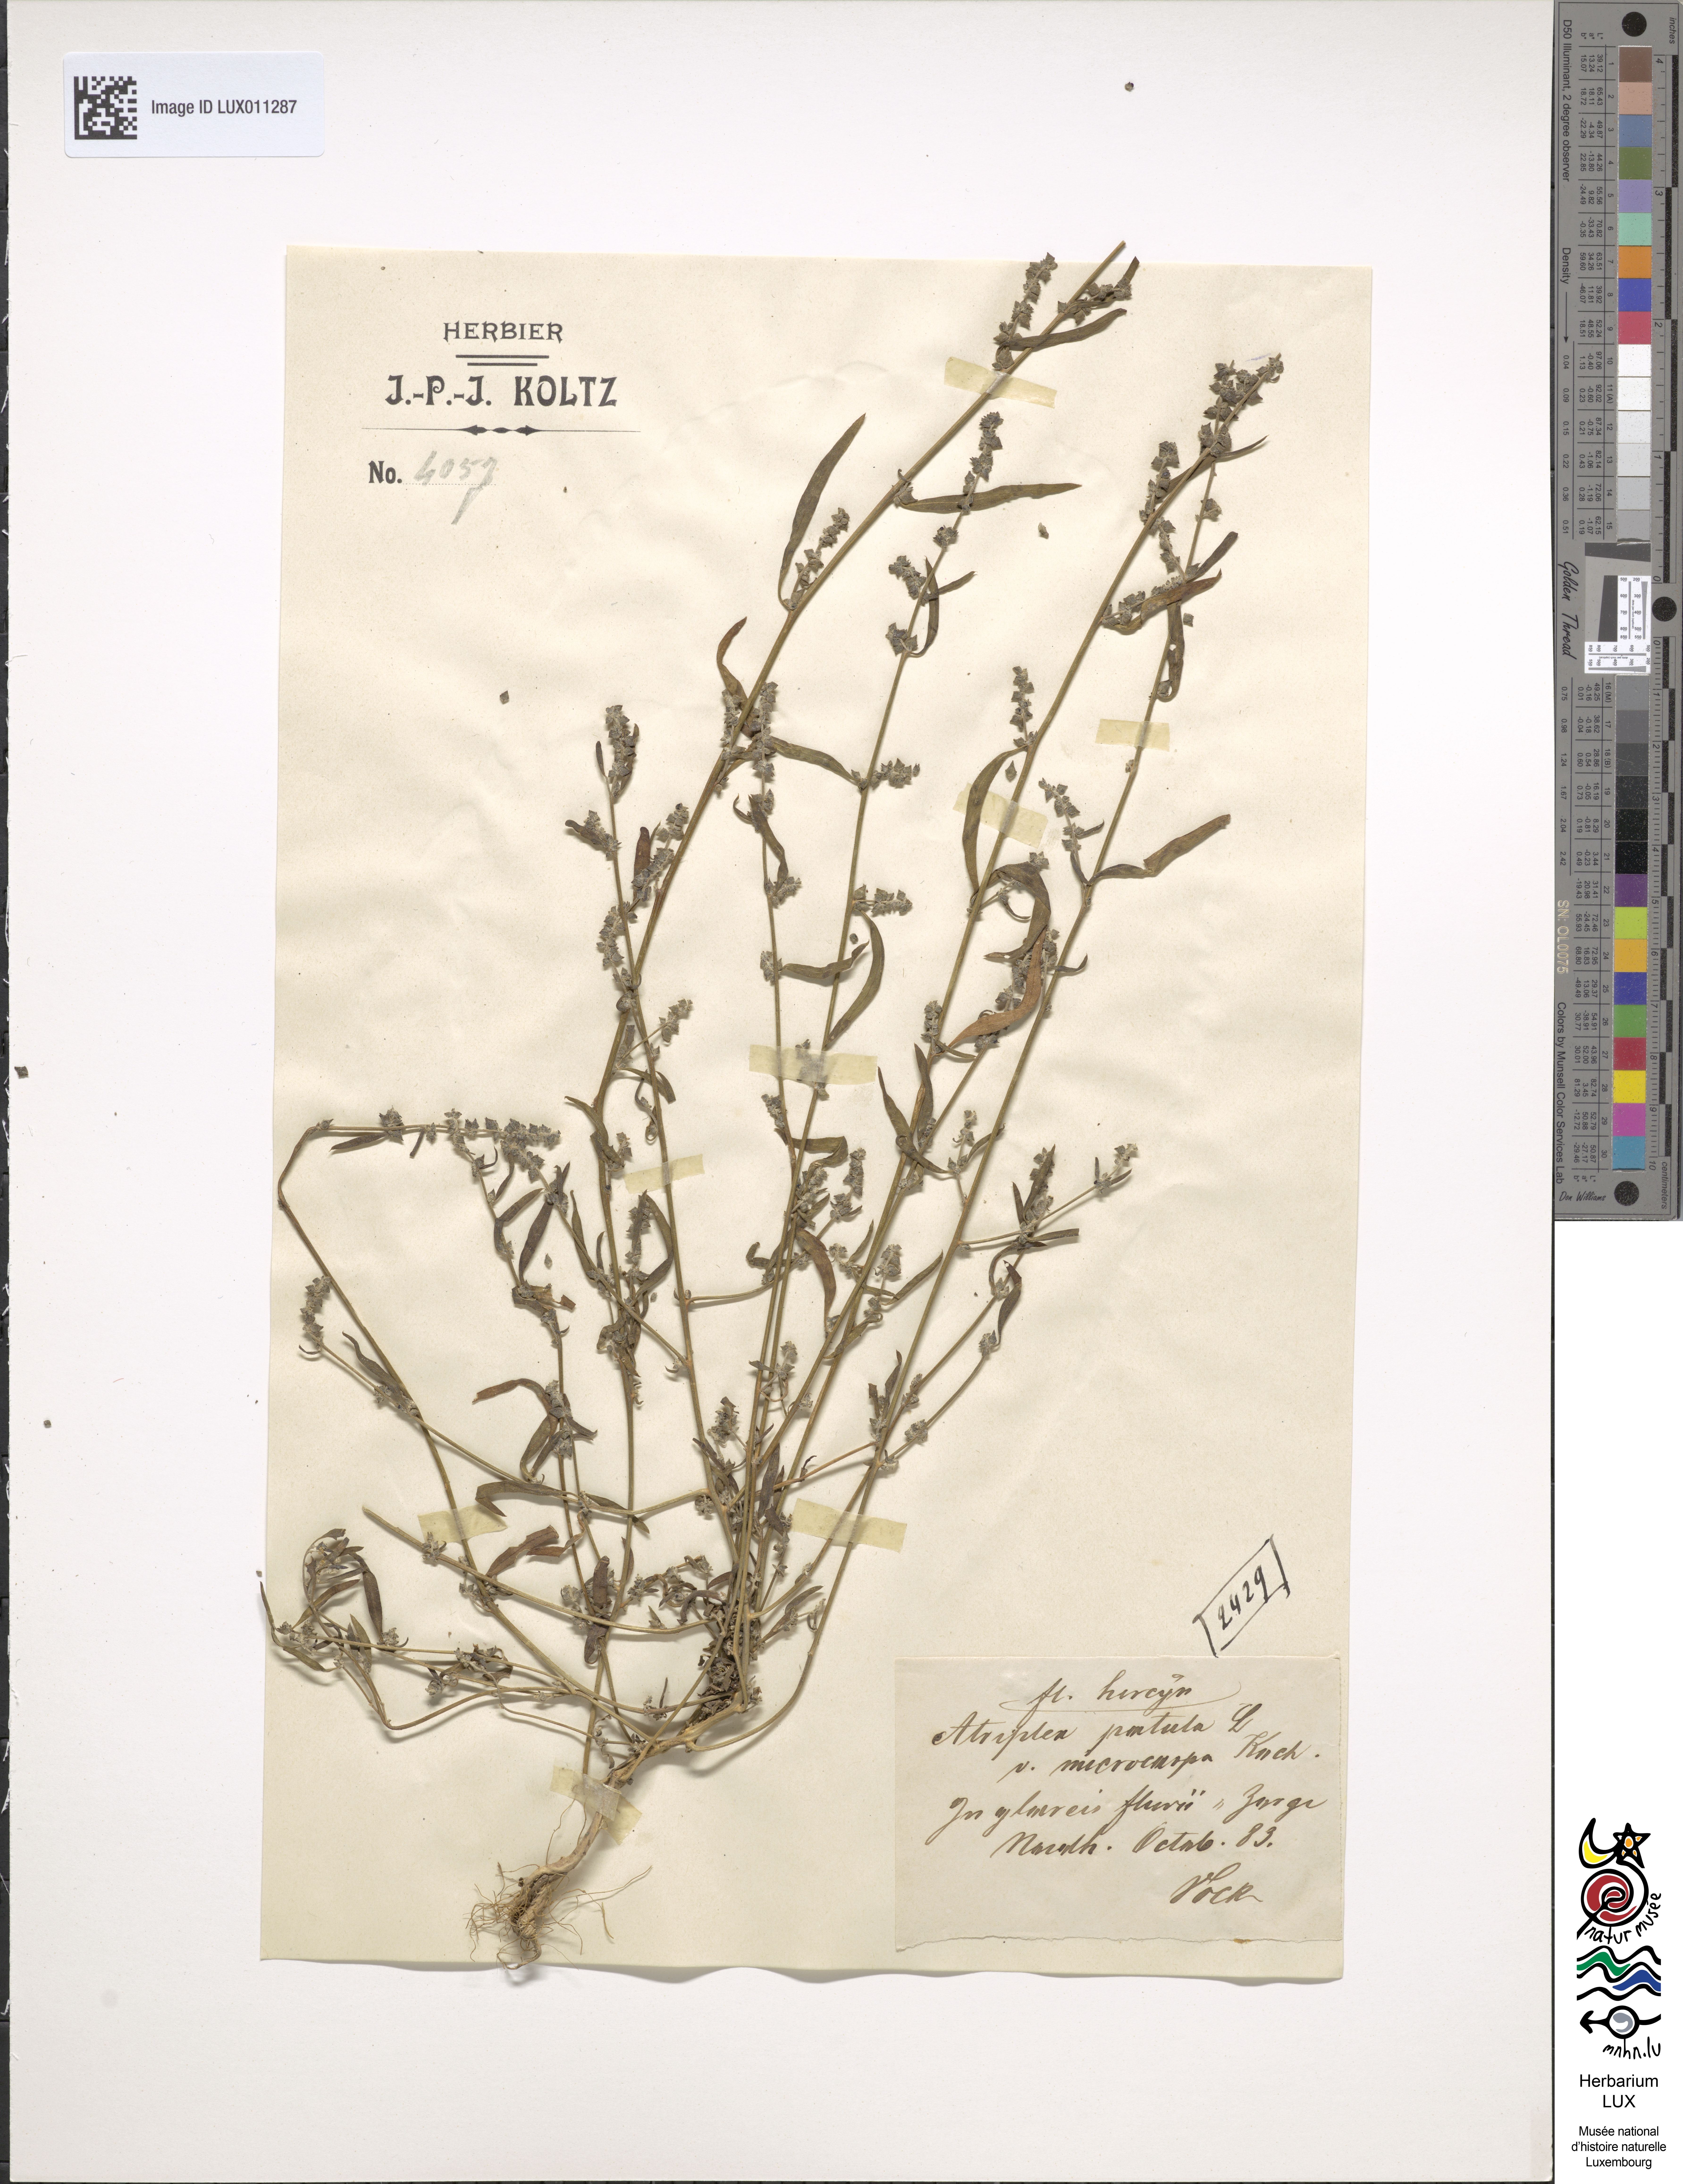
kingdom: Plantae
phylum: Tracheophyta
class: Magnoliopsida
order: Caryophyllales
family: Amaranthaceae
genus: Atriplex
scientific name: Atriplex patula
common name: Common orache
